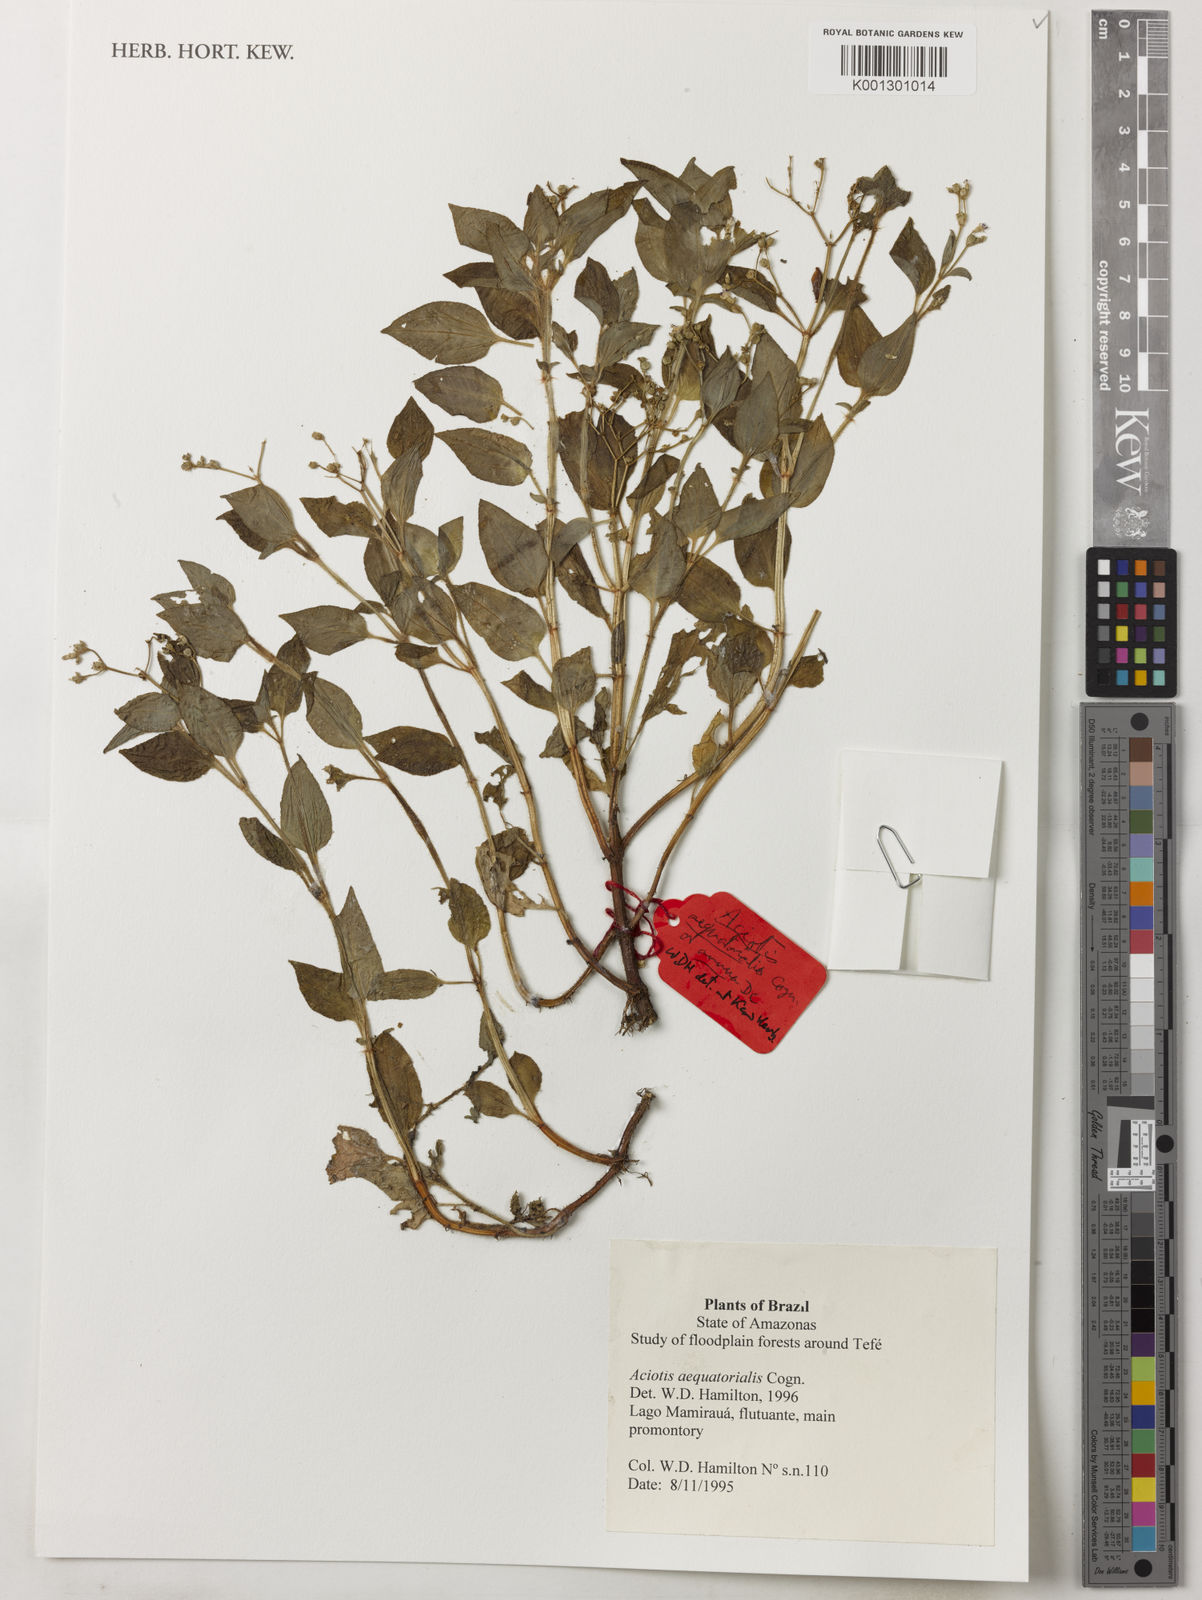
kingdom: Plantae
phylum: Tracheophyta
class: Magnoliopsida
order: Myrtales
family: Melastomataceae
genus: Aciotis
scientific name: Aciotis acuminifolia
